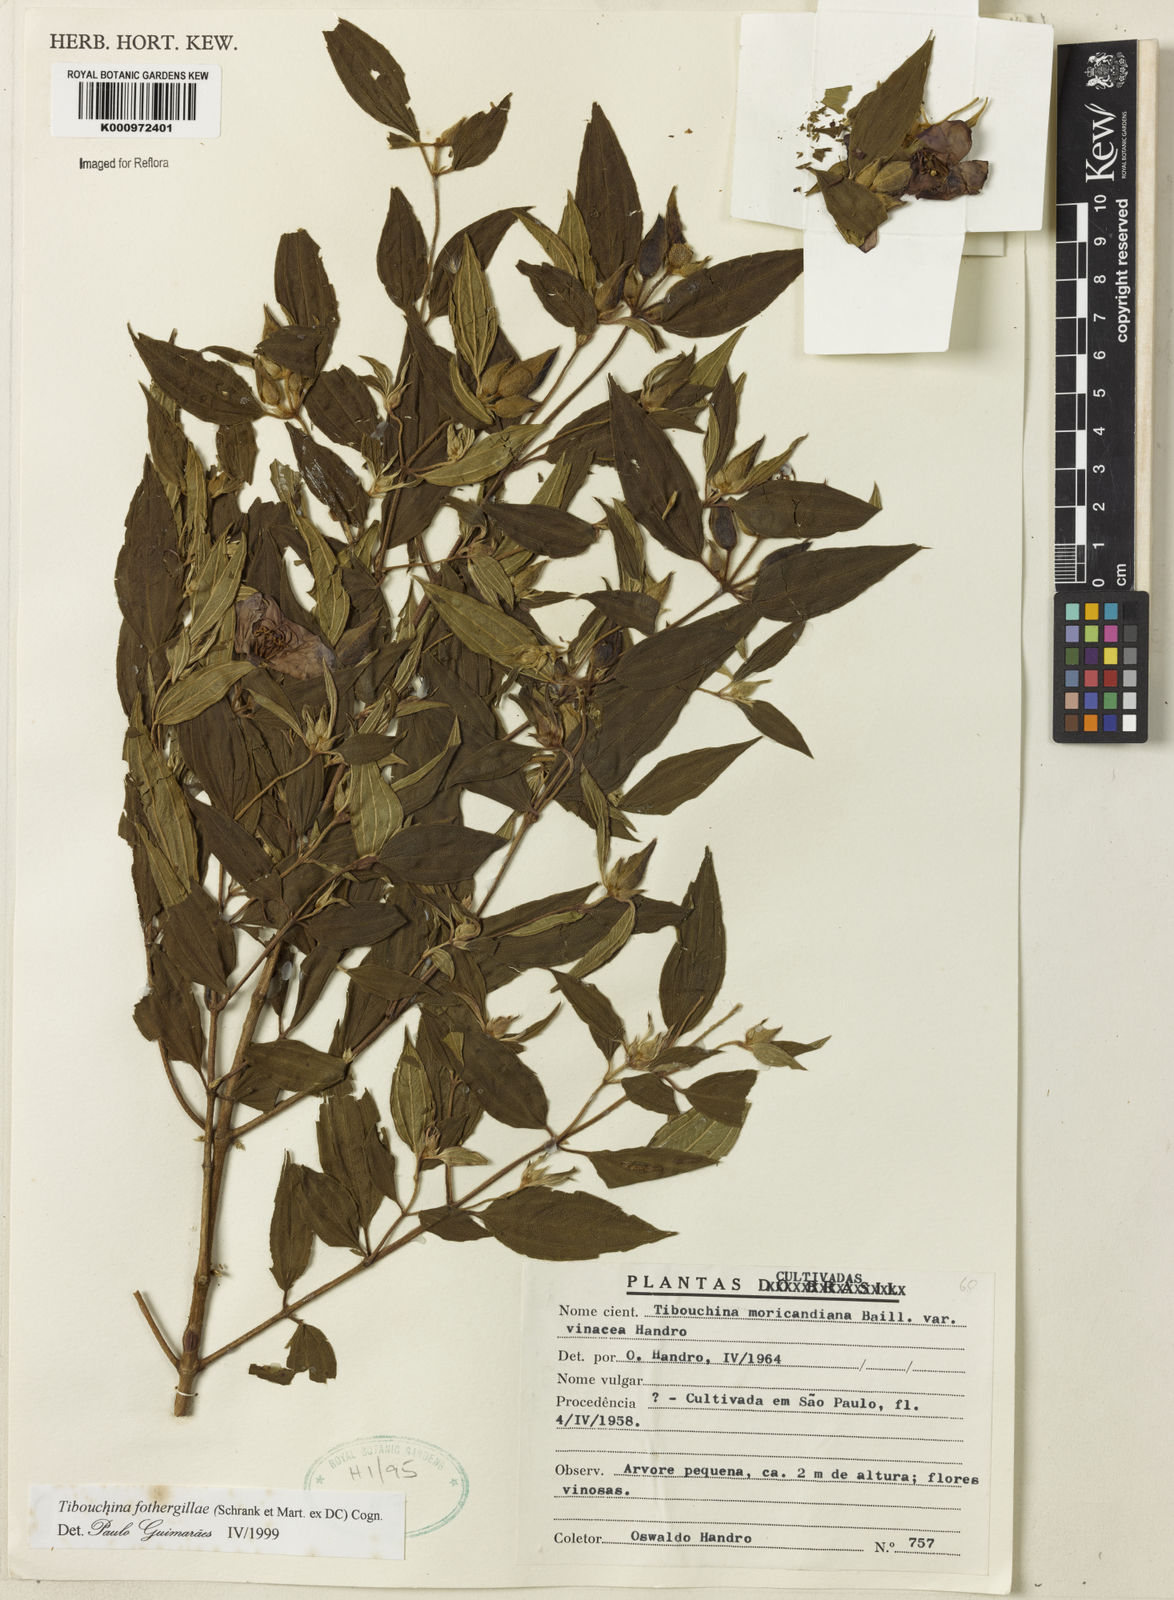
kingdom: Plantae
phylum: Tracheophyta
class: Magnoliopsida
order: Myrtales
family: Melastomataceae
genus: Pleroma
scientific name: Pleroma fothergillae
